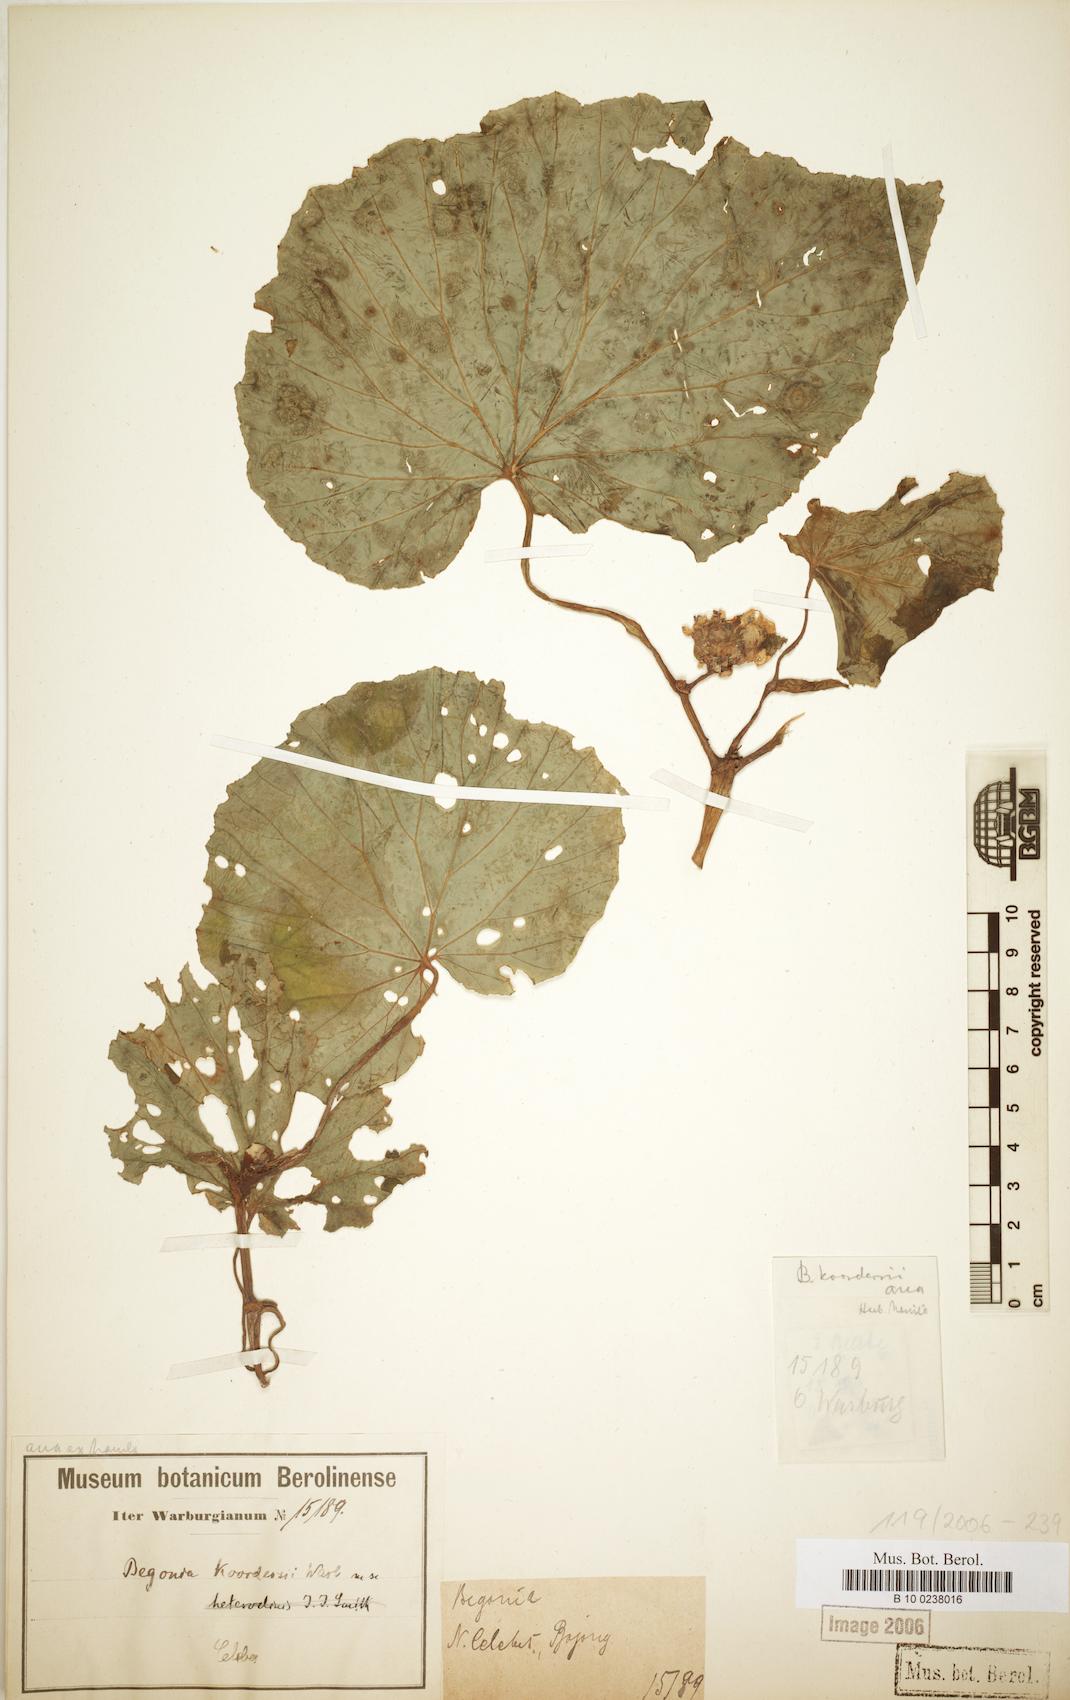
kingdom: Plantae
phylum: Tracheophyta
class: Magnoliopsida
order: Cucurbitales
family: Begoniaceae
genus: Begonia
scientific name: Begonia koordersii
